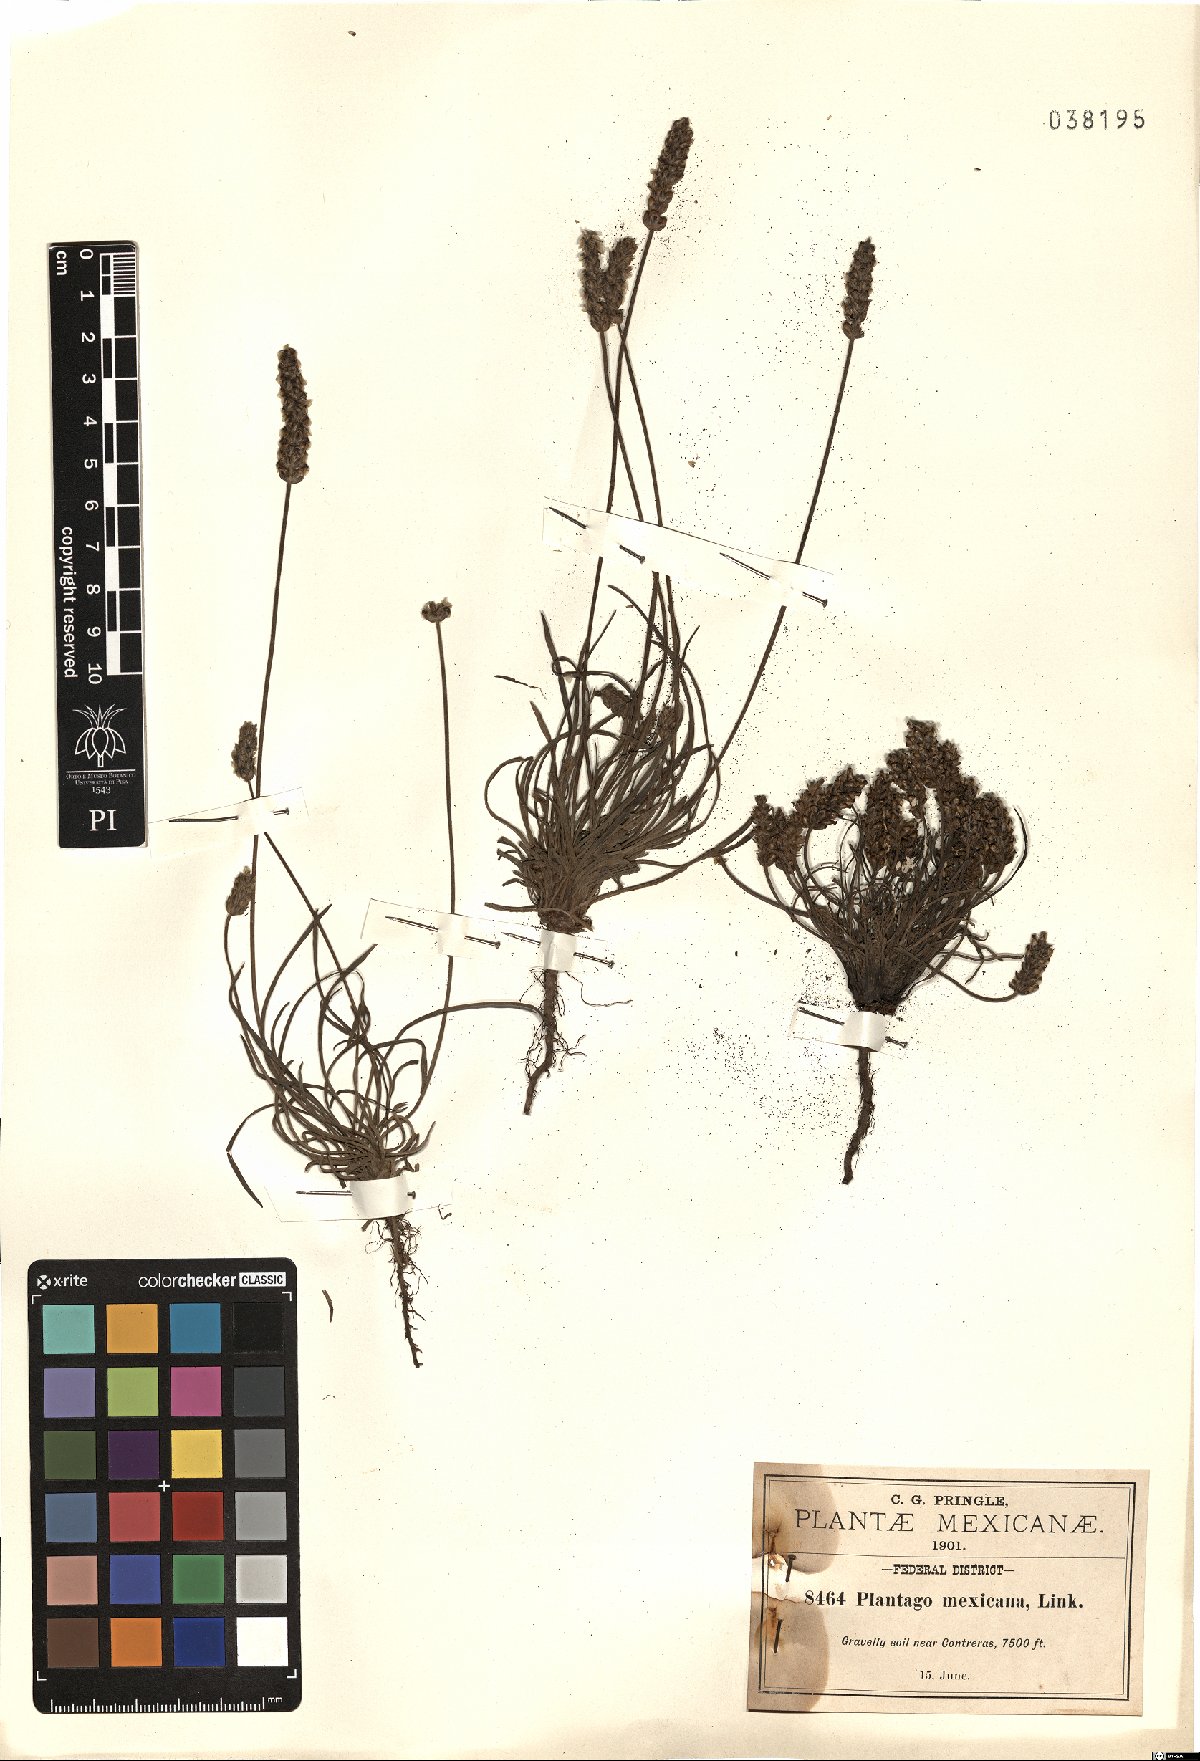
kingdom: Plantae
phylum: Tracheophyta
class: Magnoliopsida
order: Lamiales
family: Plantaginaceae
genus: Plantago
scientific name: Plantago nivea
